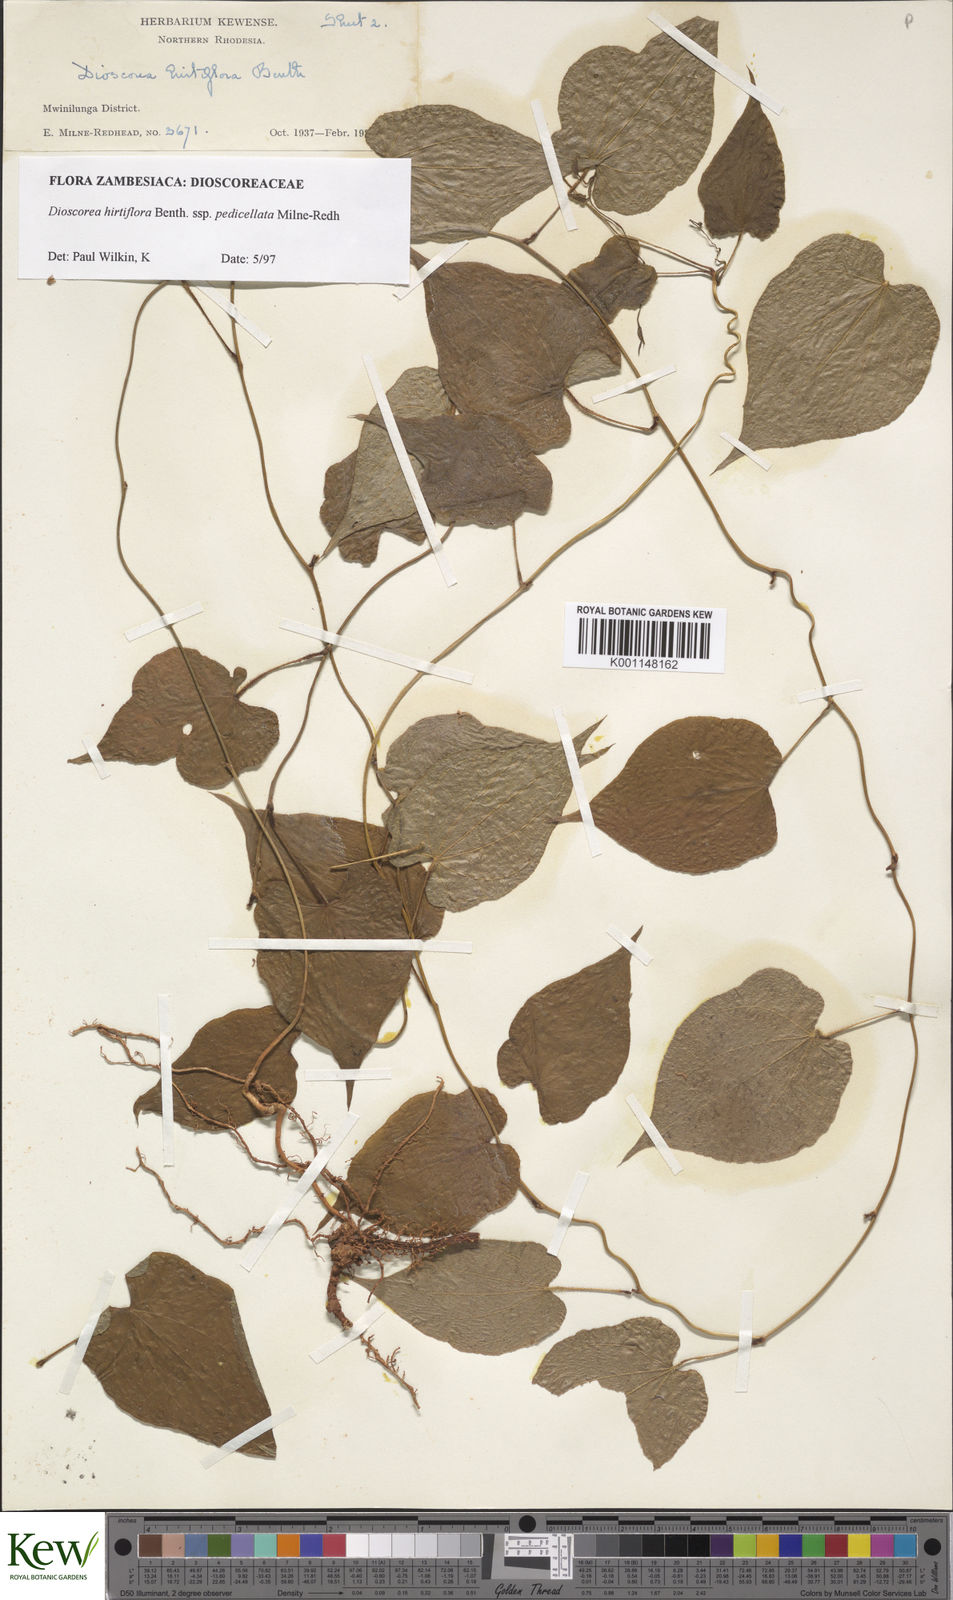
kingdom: Plantae
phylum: Tracheophyta
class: Liliopsida
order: Dioscoreales
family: Dioscoreaceae
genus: Dioscorea
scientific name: Dioscorea hirtiflora
